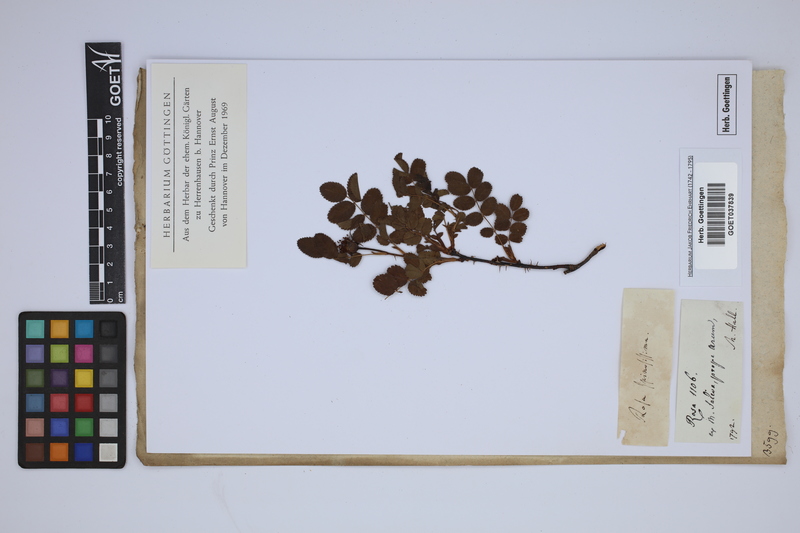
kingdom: Plantae
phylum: Tracheophyta
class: Magnoliopsida
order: Rosales
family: Rosaceae
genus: Rosa
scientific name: Rosa spinosissima
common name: Burnet rose
